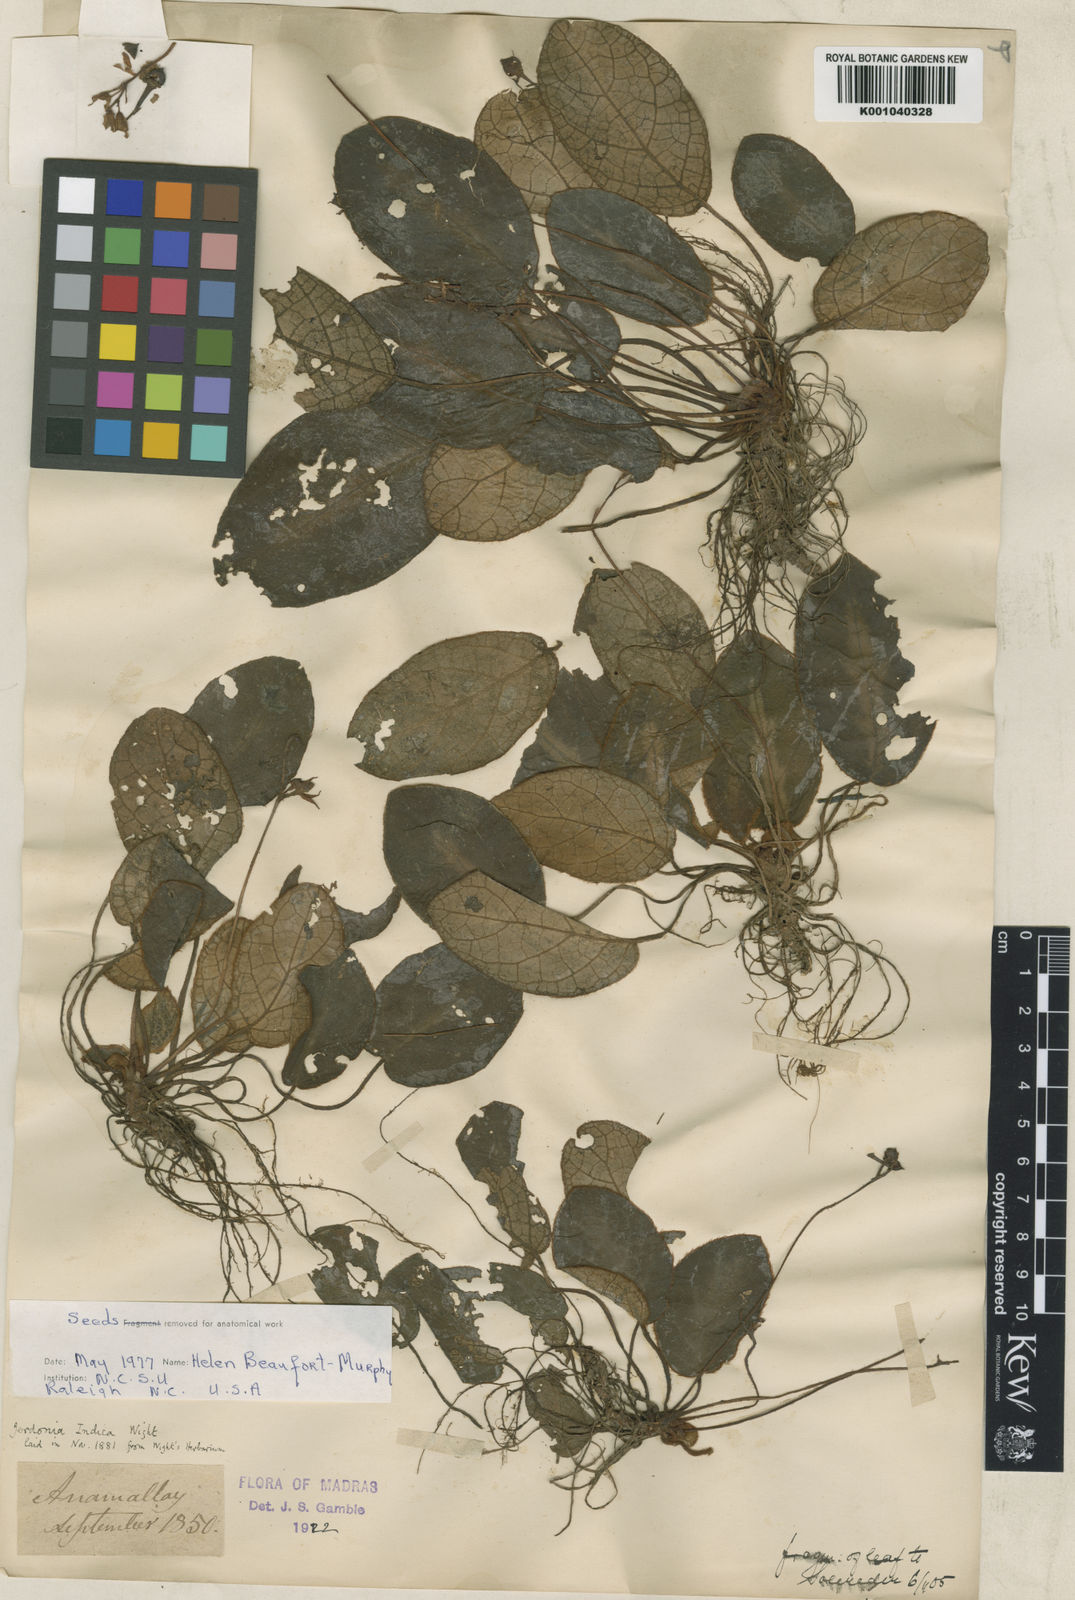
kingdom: Plantae
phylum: Tracheophyta
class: Magnoliopsida
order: Lamiales
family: Gesneriaceae
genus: Jerdonia
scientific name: Jerdonia indica
